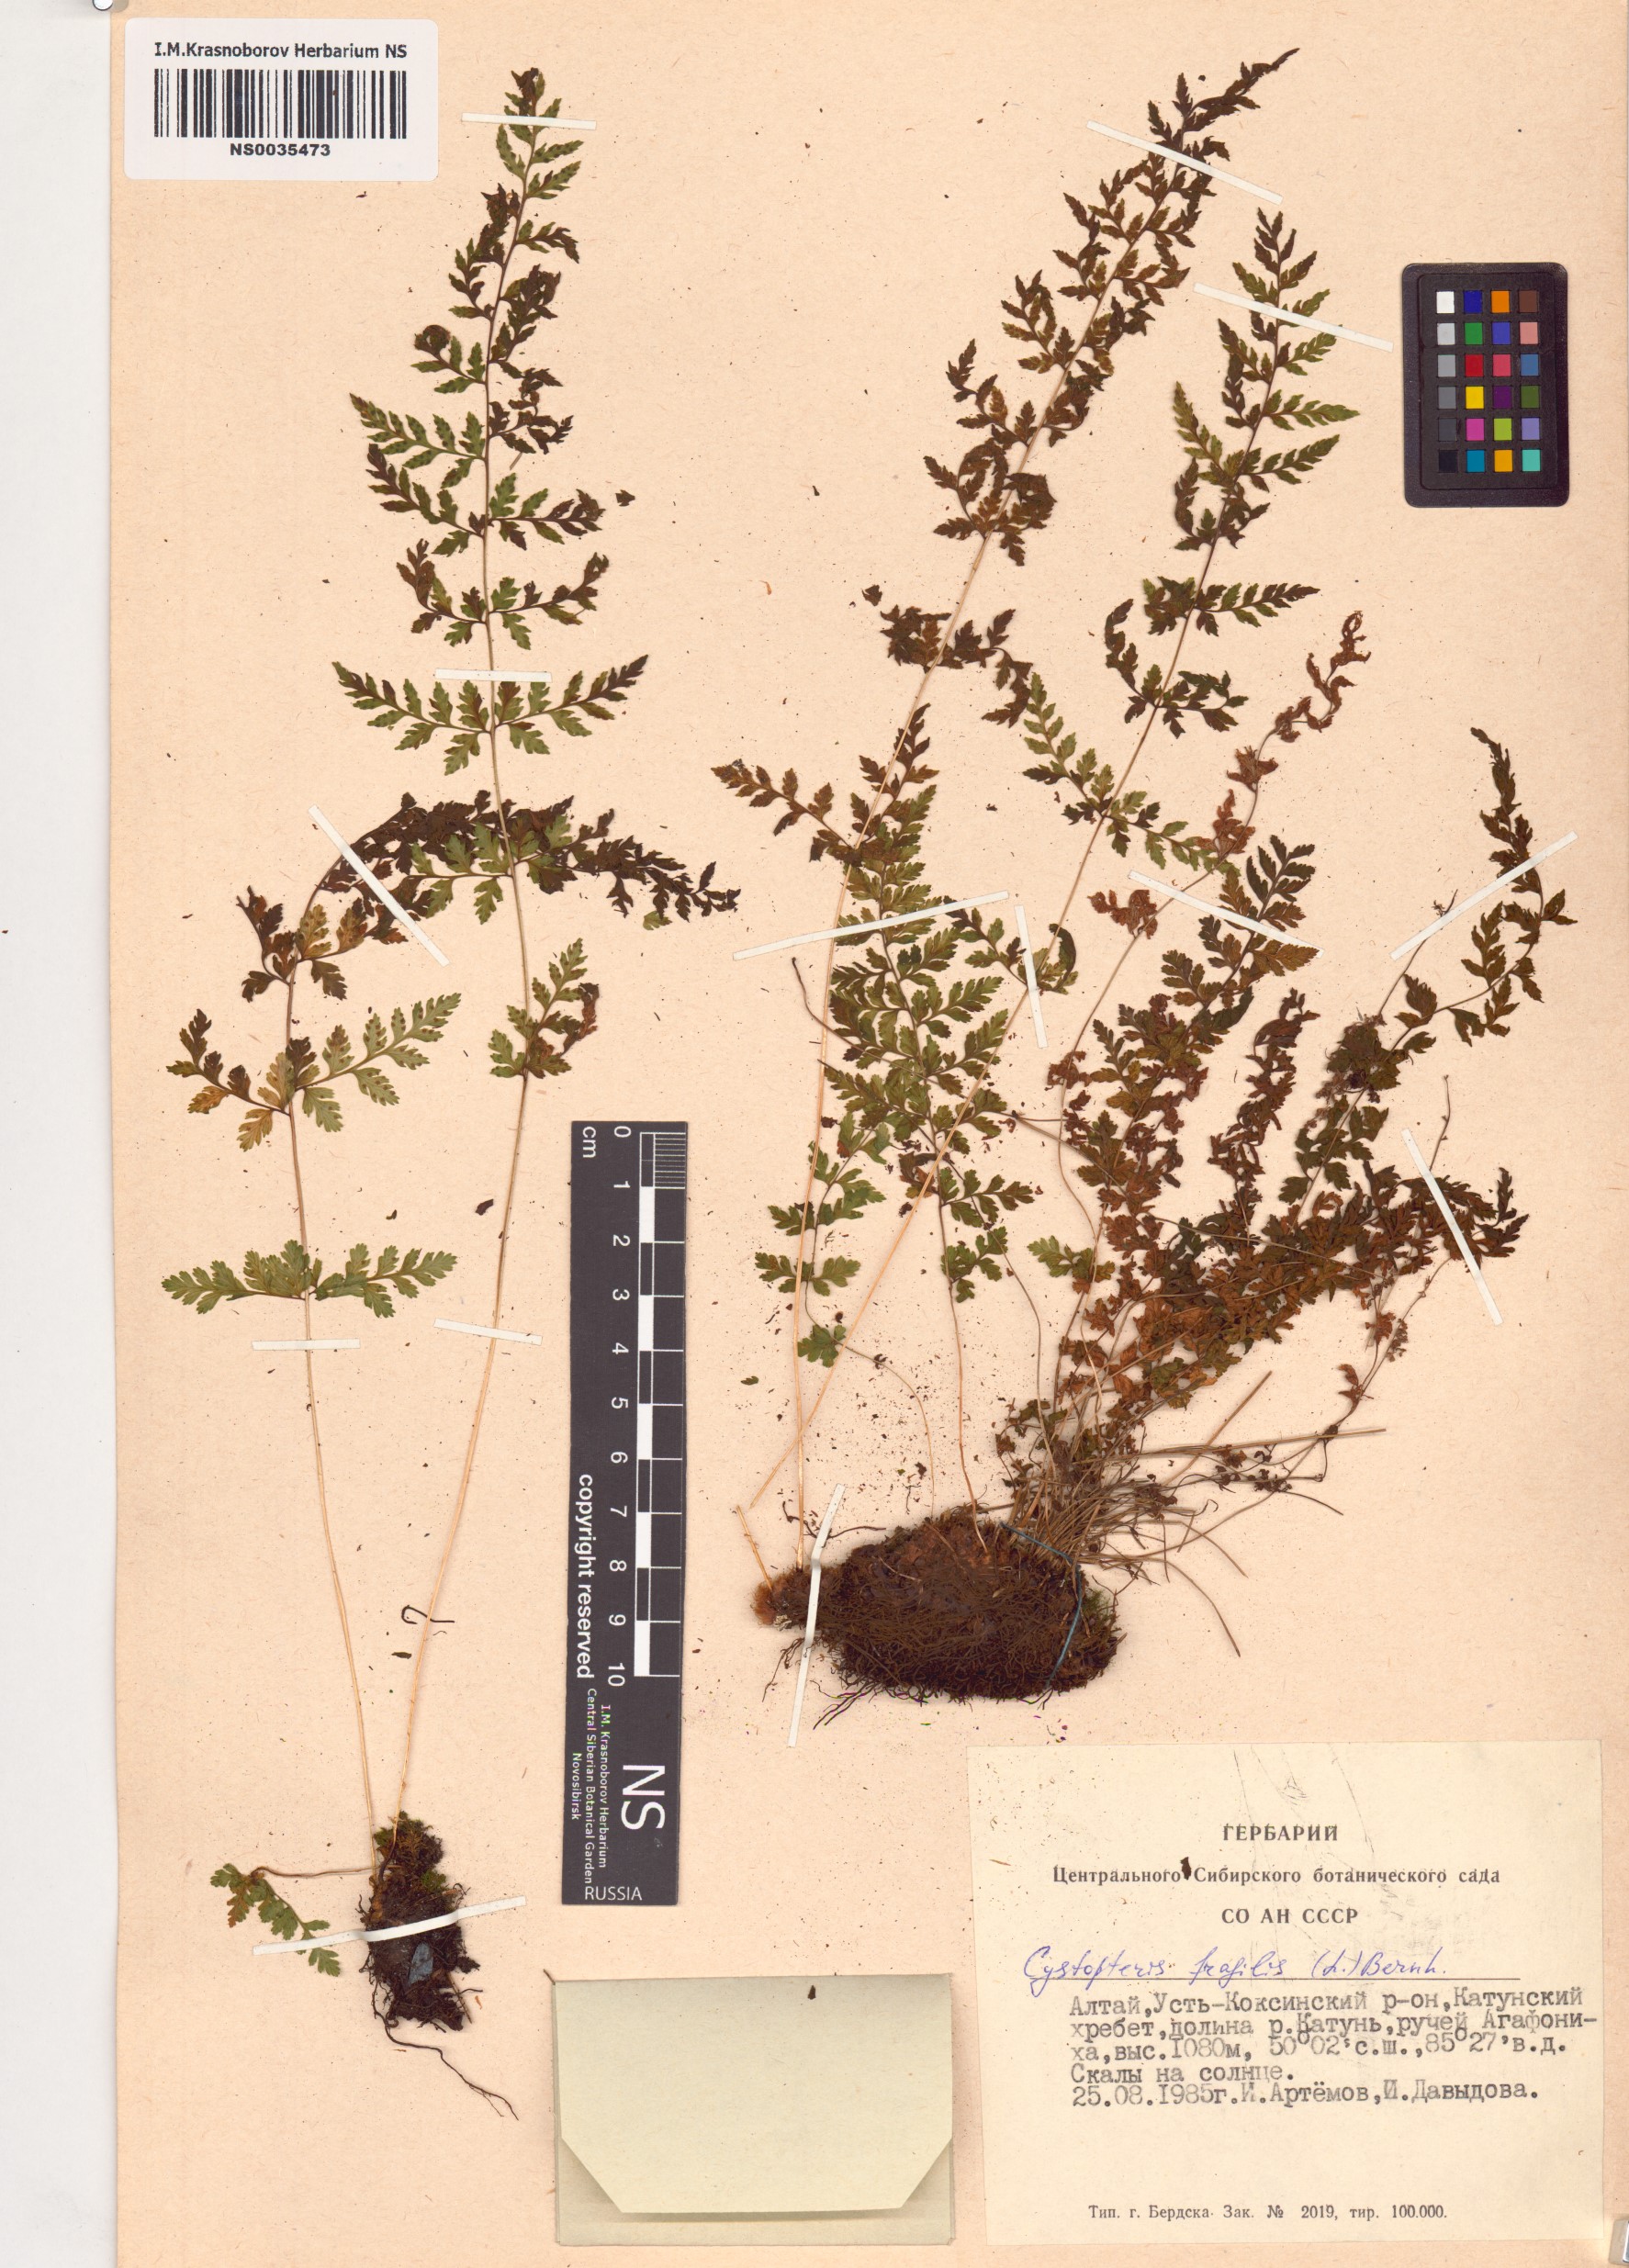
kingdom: Plantae
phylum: Tracheophyta
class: Polypodiopsida
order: Polypodiales
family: Cystopteridaceae
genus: Cystopteris
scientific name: Cystopteris fragilis
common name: Brittle bladder fern
